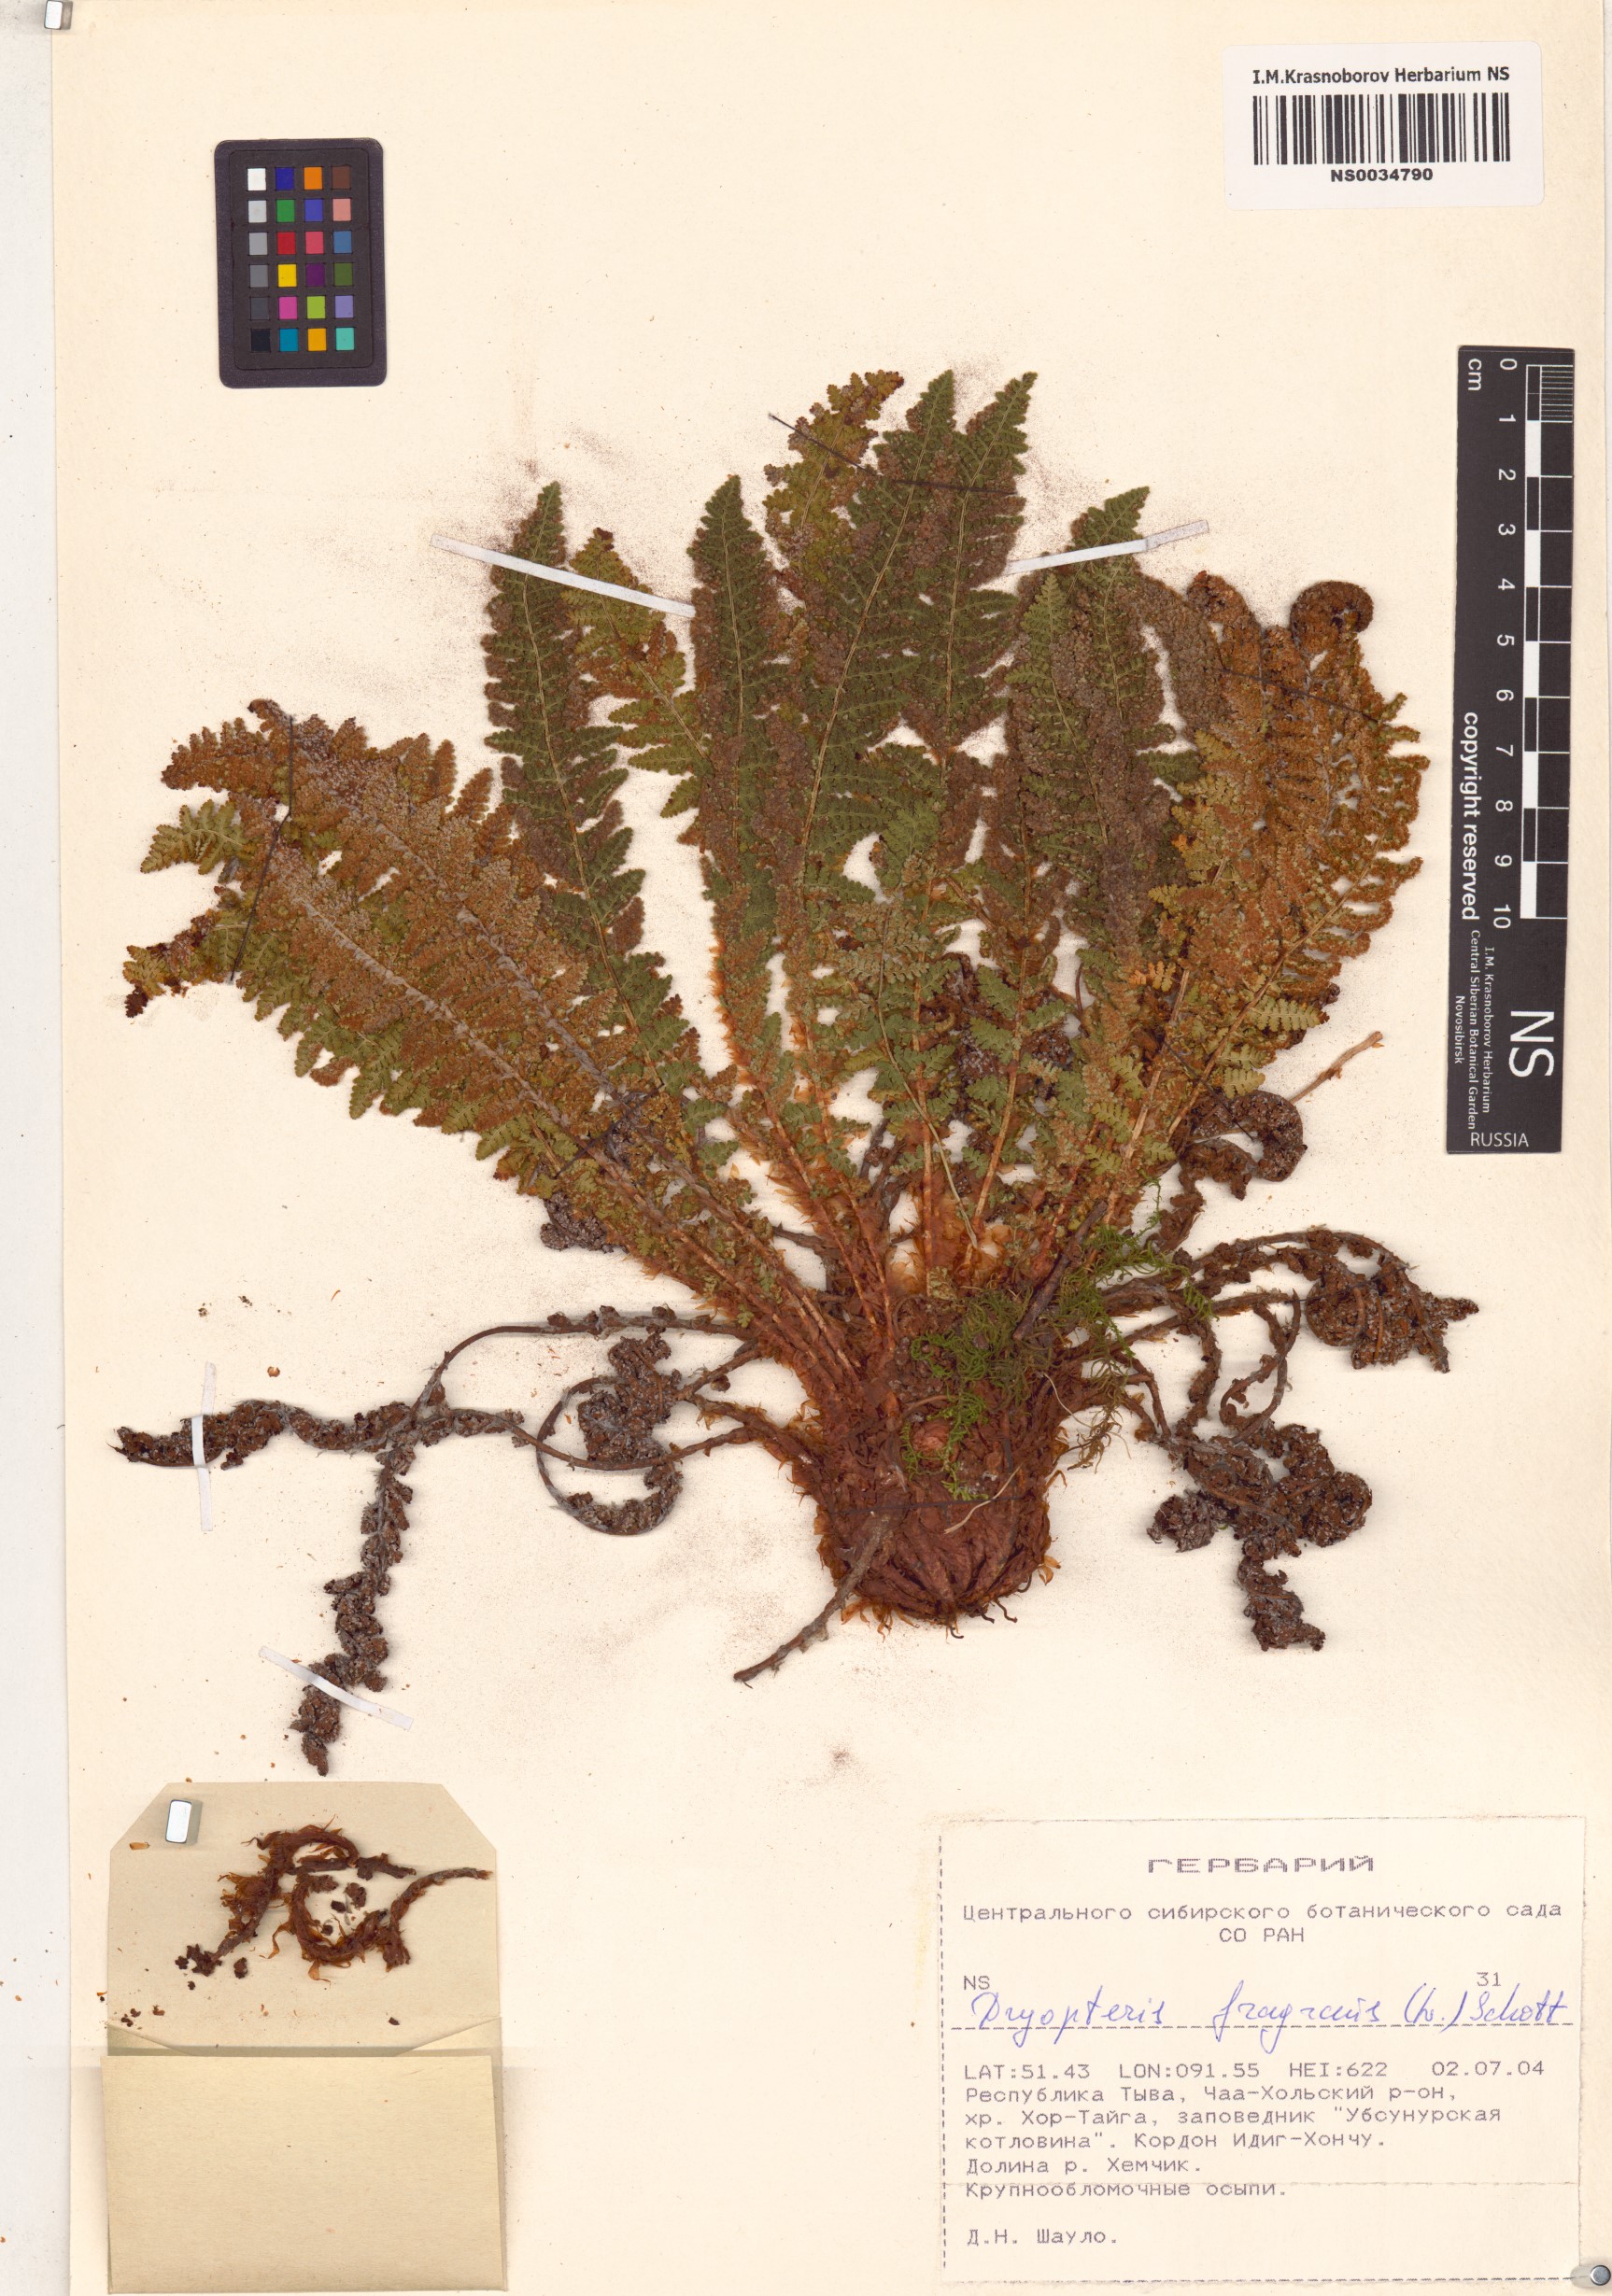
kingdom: Plantae
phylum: Tracheophyta
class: Polypodiopsida
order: Polypodiales
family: Dryopteridaceae
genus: Dryopteris
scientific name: Dryopteris fragrans
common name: Fragrant wood fern
